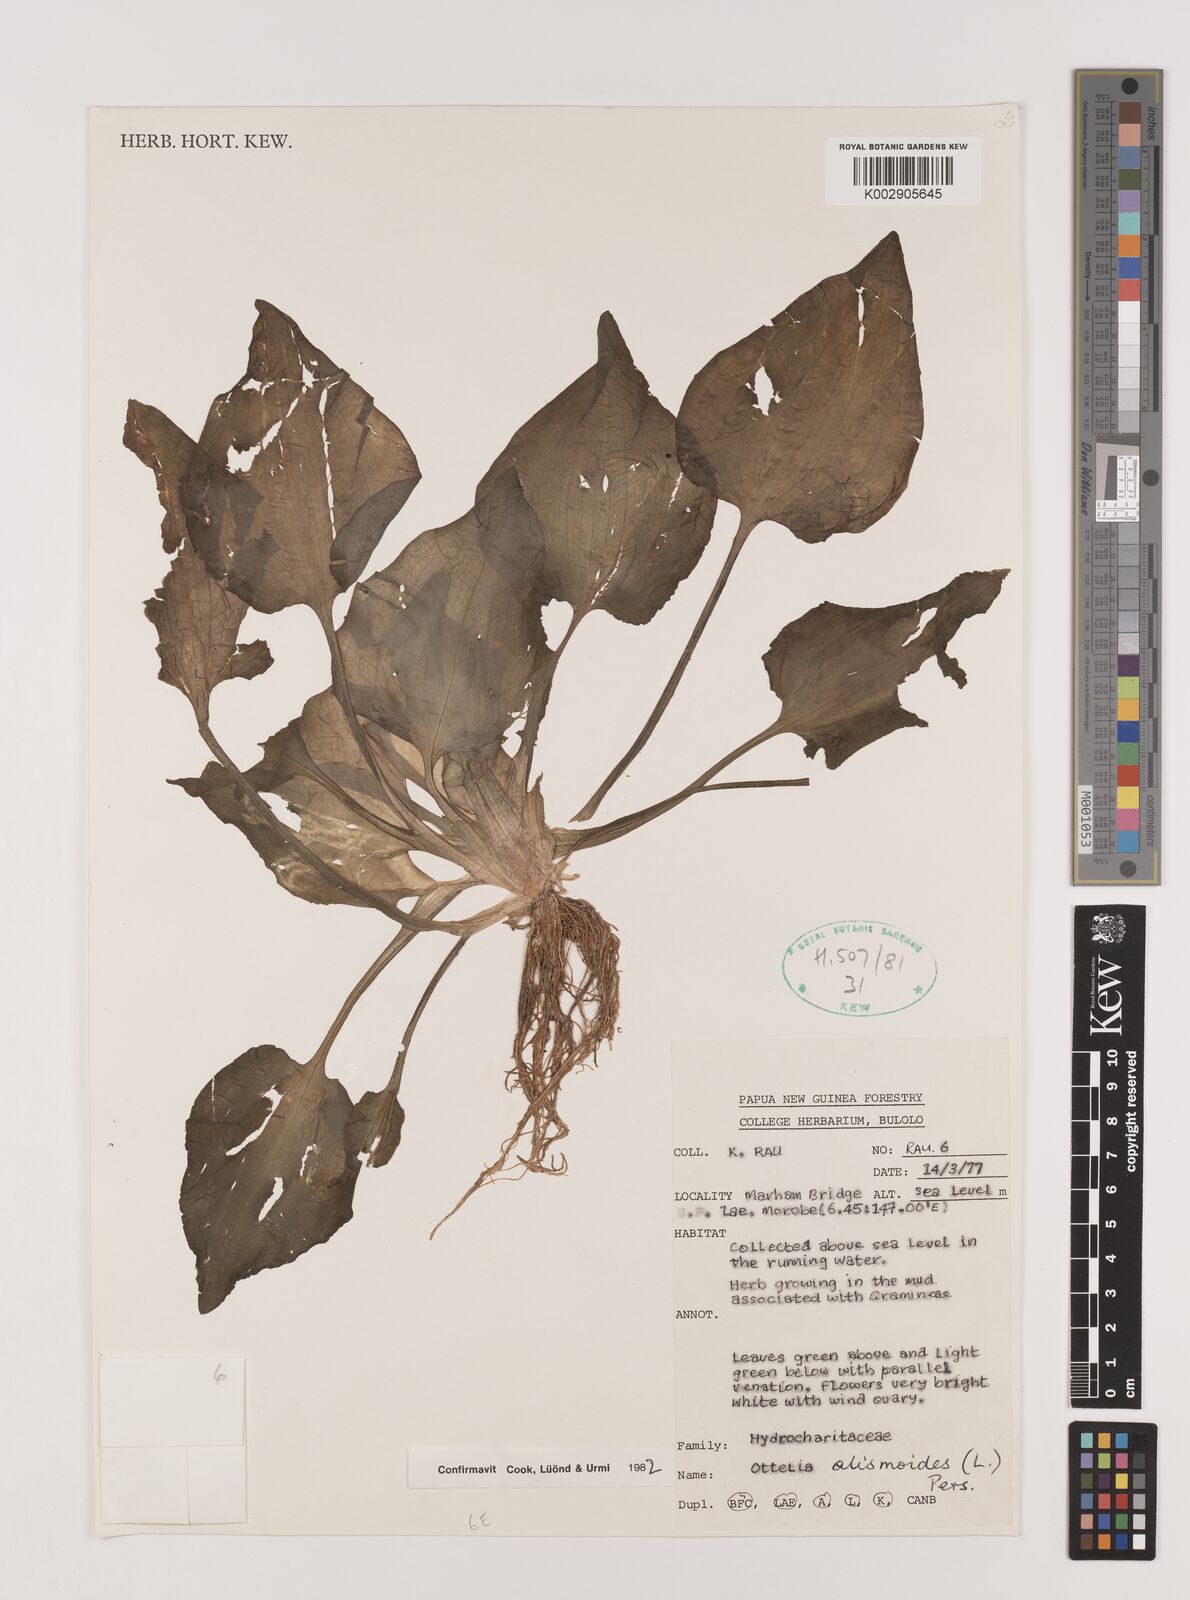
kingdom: Plantae
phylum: Tracheophyta
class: Liliopsida
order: Alismatales
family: Hydrocharitaceae
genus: Ottelia
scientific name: Ottelia alismoides
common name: Duck-lettuce
